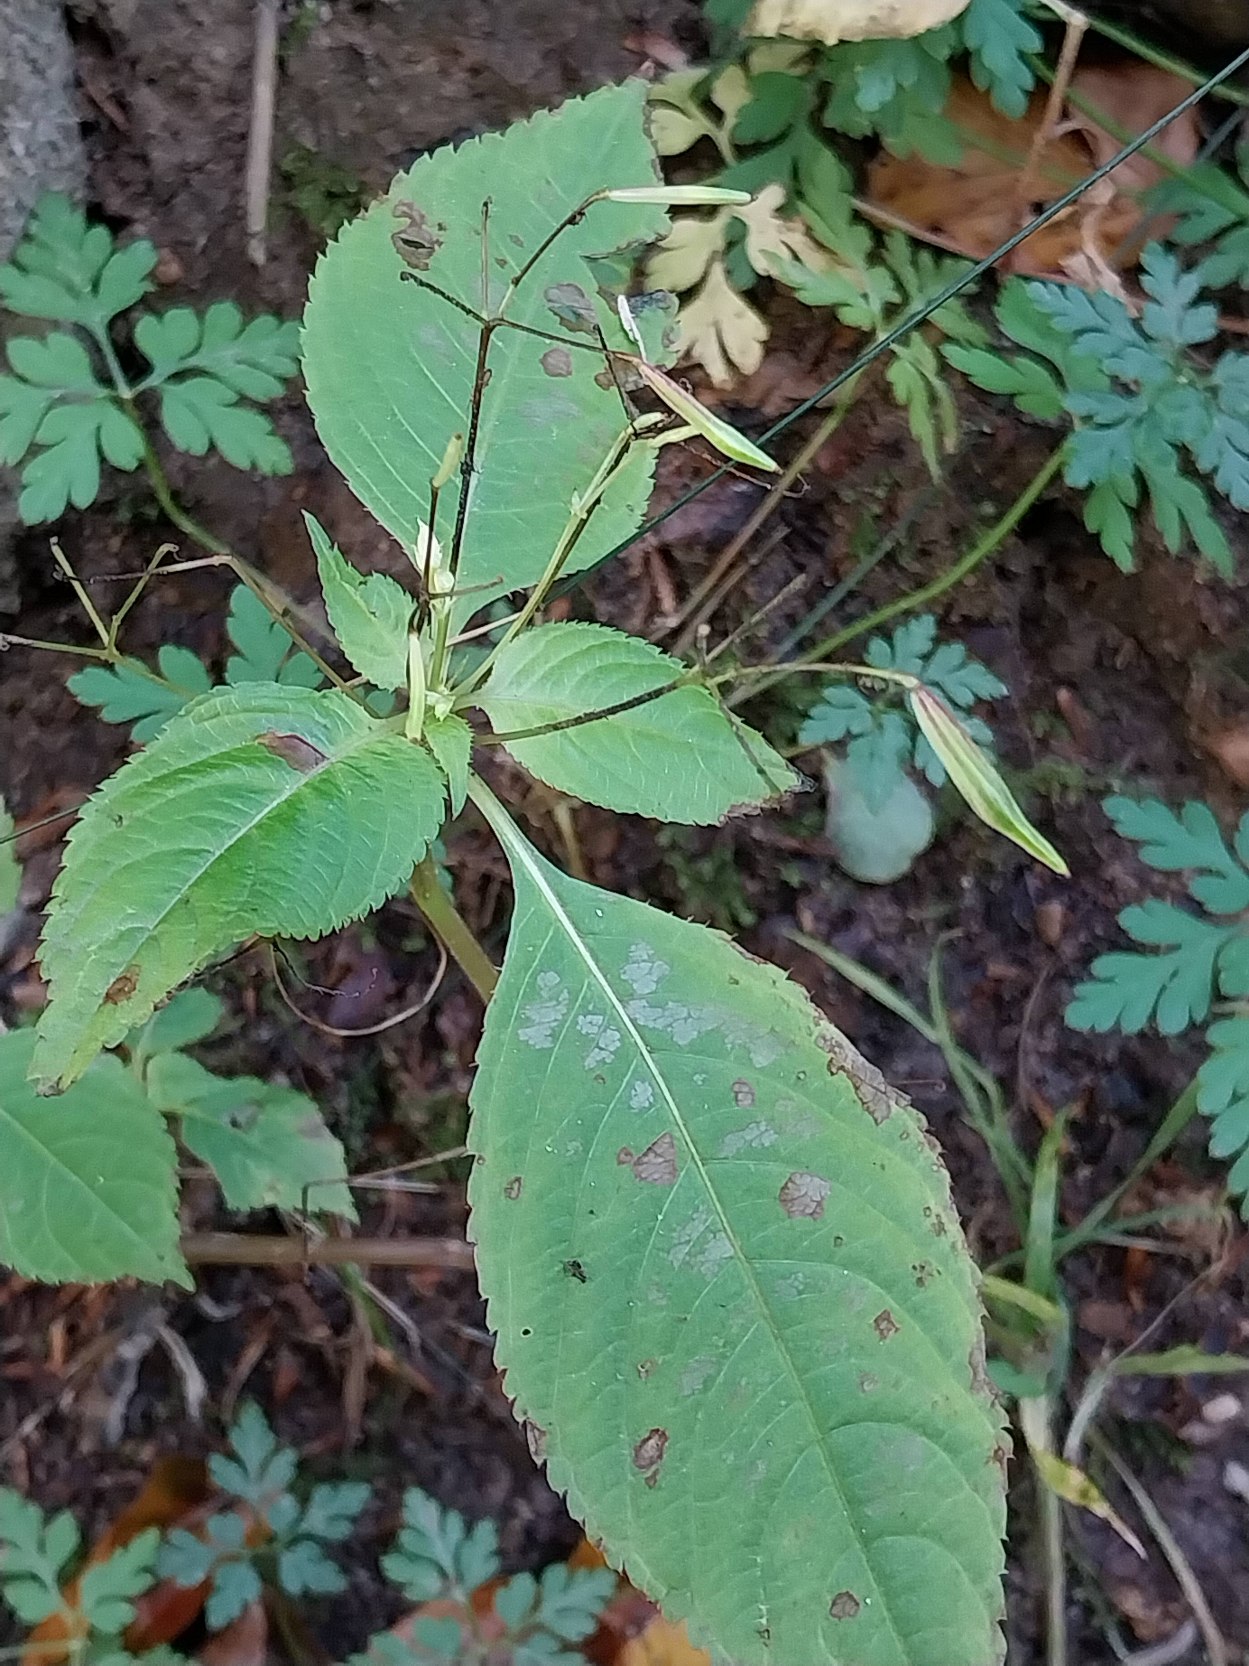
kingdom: Plantae
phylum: Tracheophyta
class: Magnoliopsida
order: Ericales
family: Balsaminaceae
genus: Impatiens
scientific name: Impatiens parviflora
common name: Småblomstret balsamin
